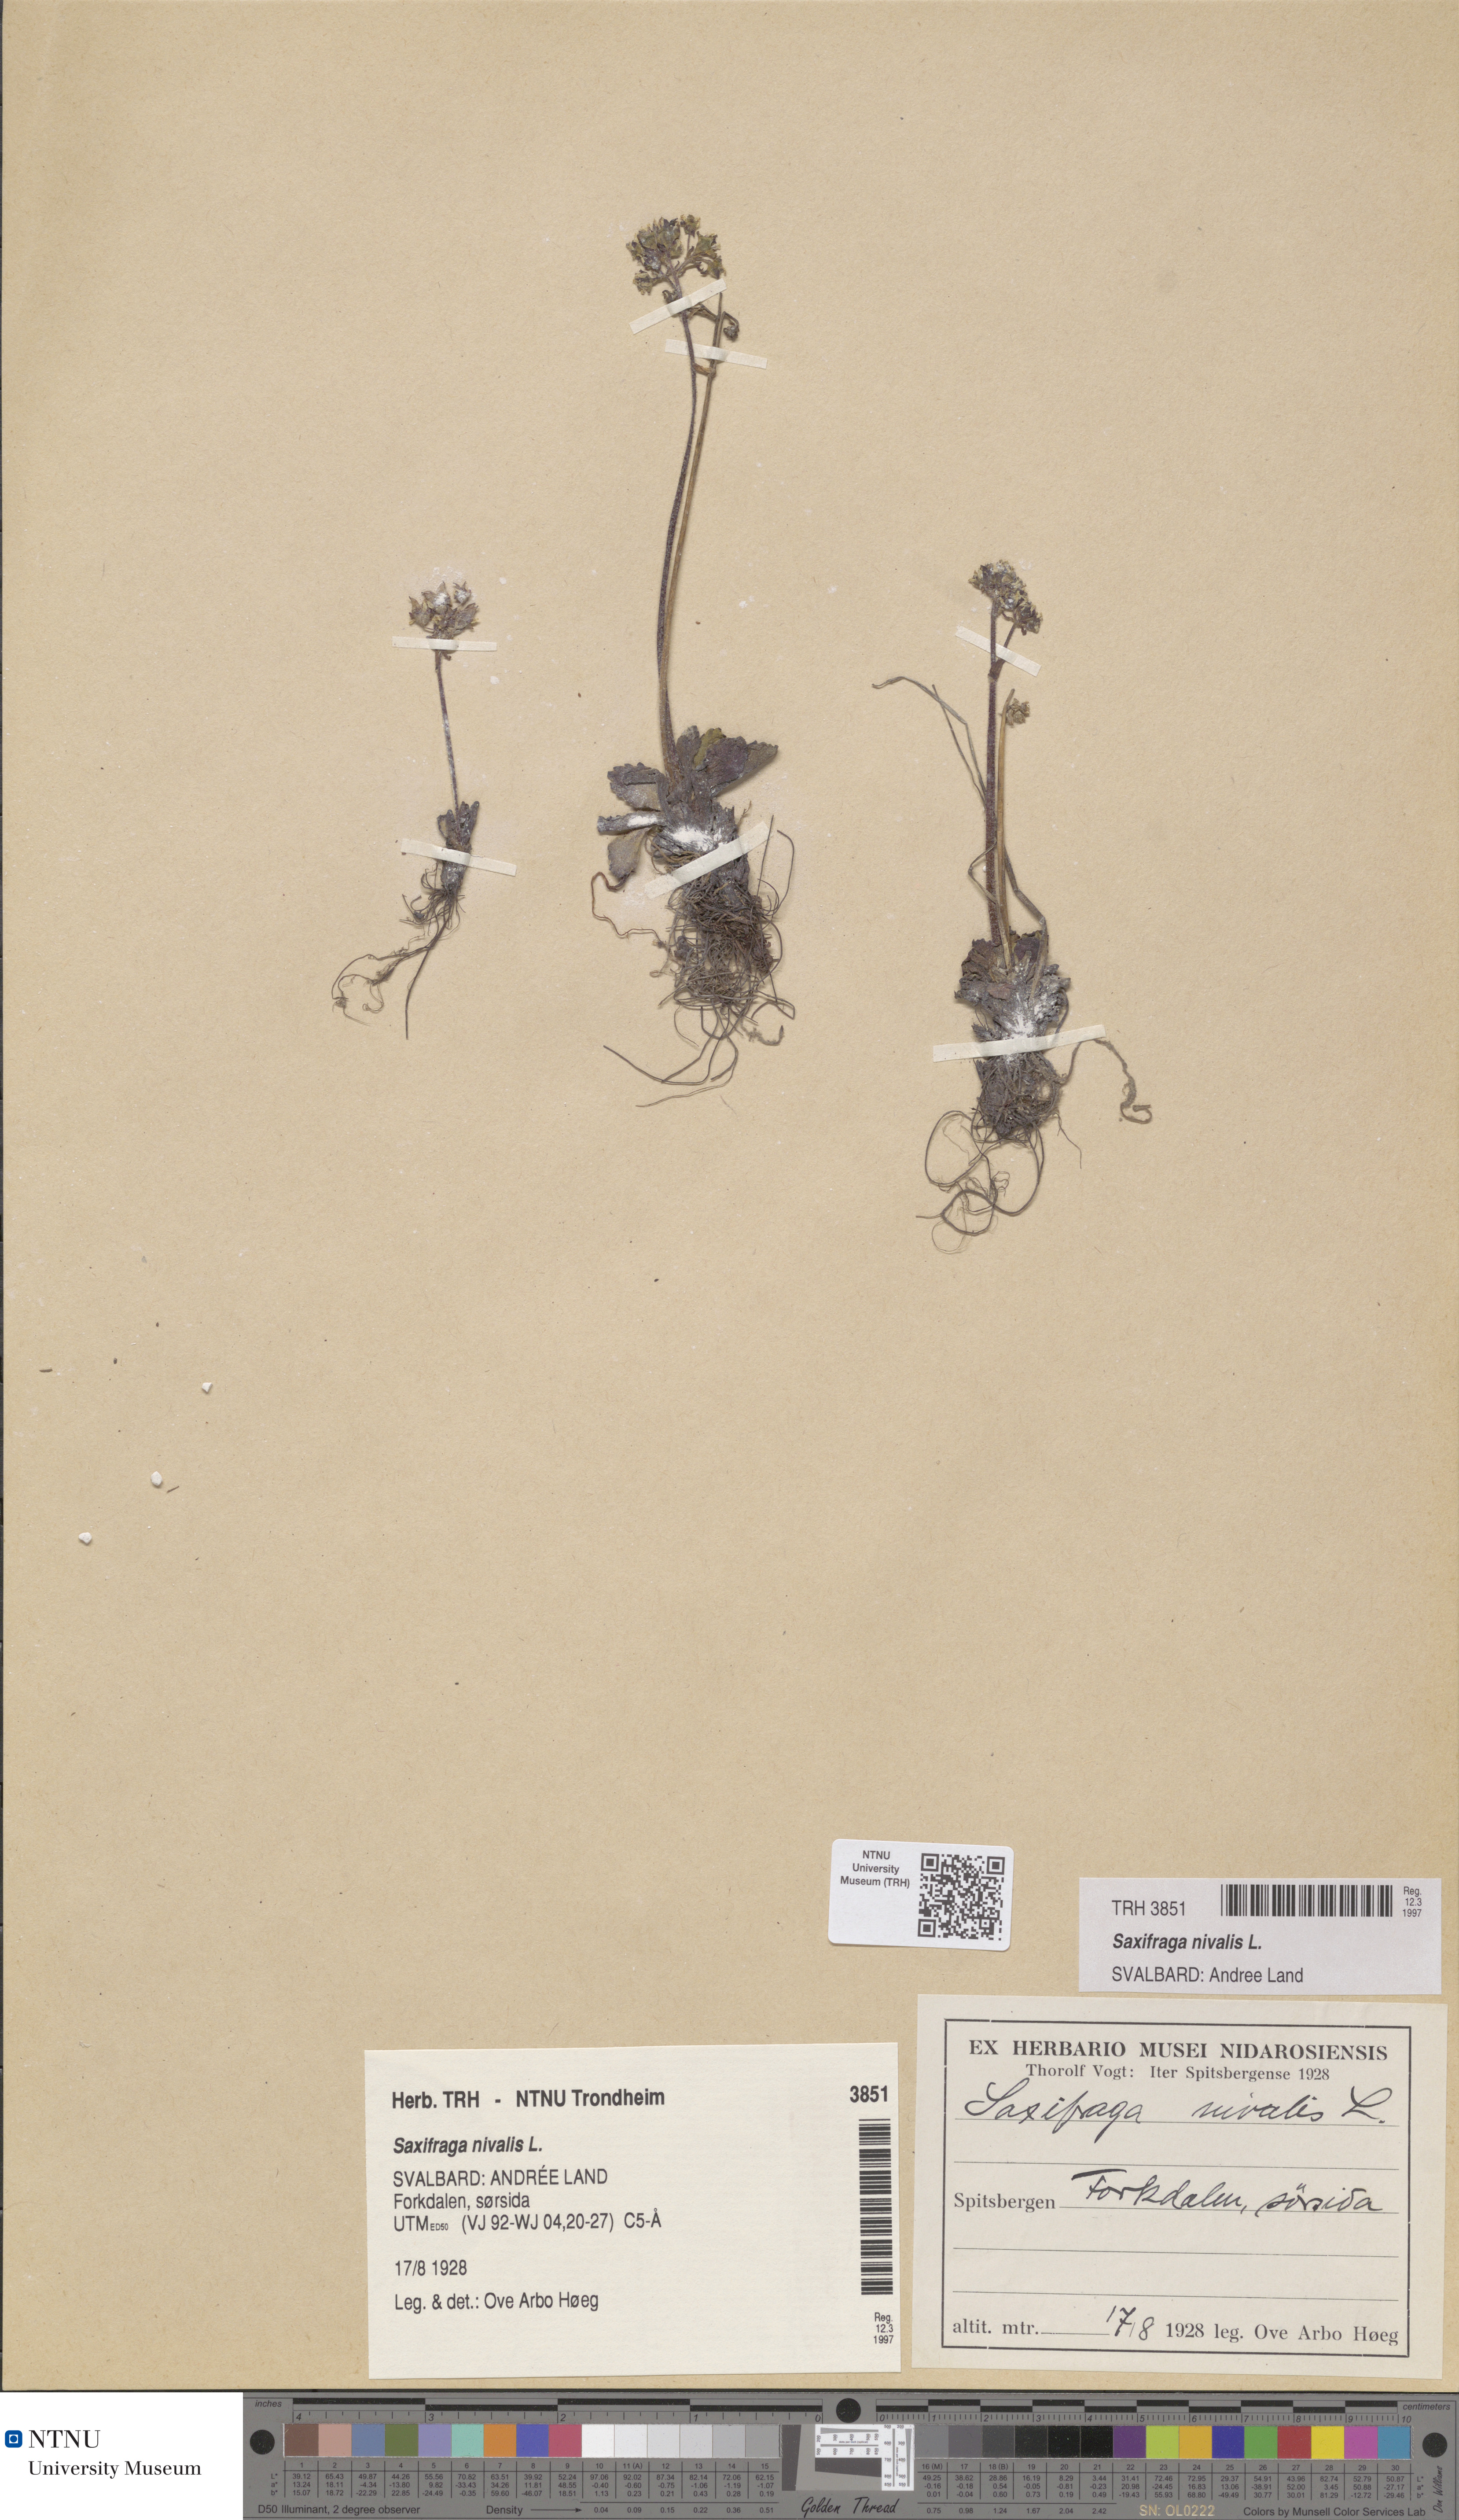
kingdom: Plantae
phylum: Tracheophyta
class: Magnoliopsida
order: Saxifragales
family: Saxifragaceae
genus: Micranthes
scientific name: Micranthes nivalis
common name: Alpine saxifrage
